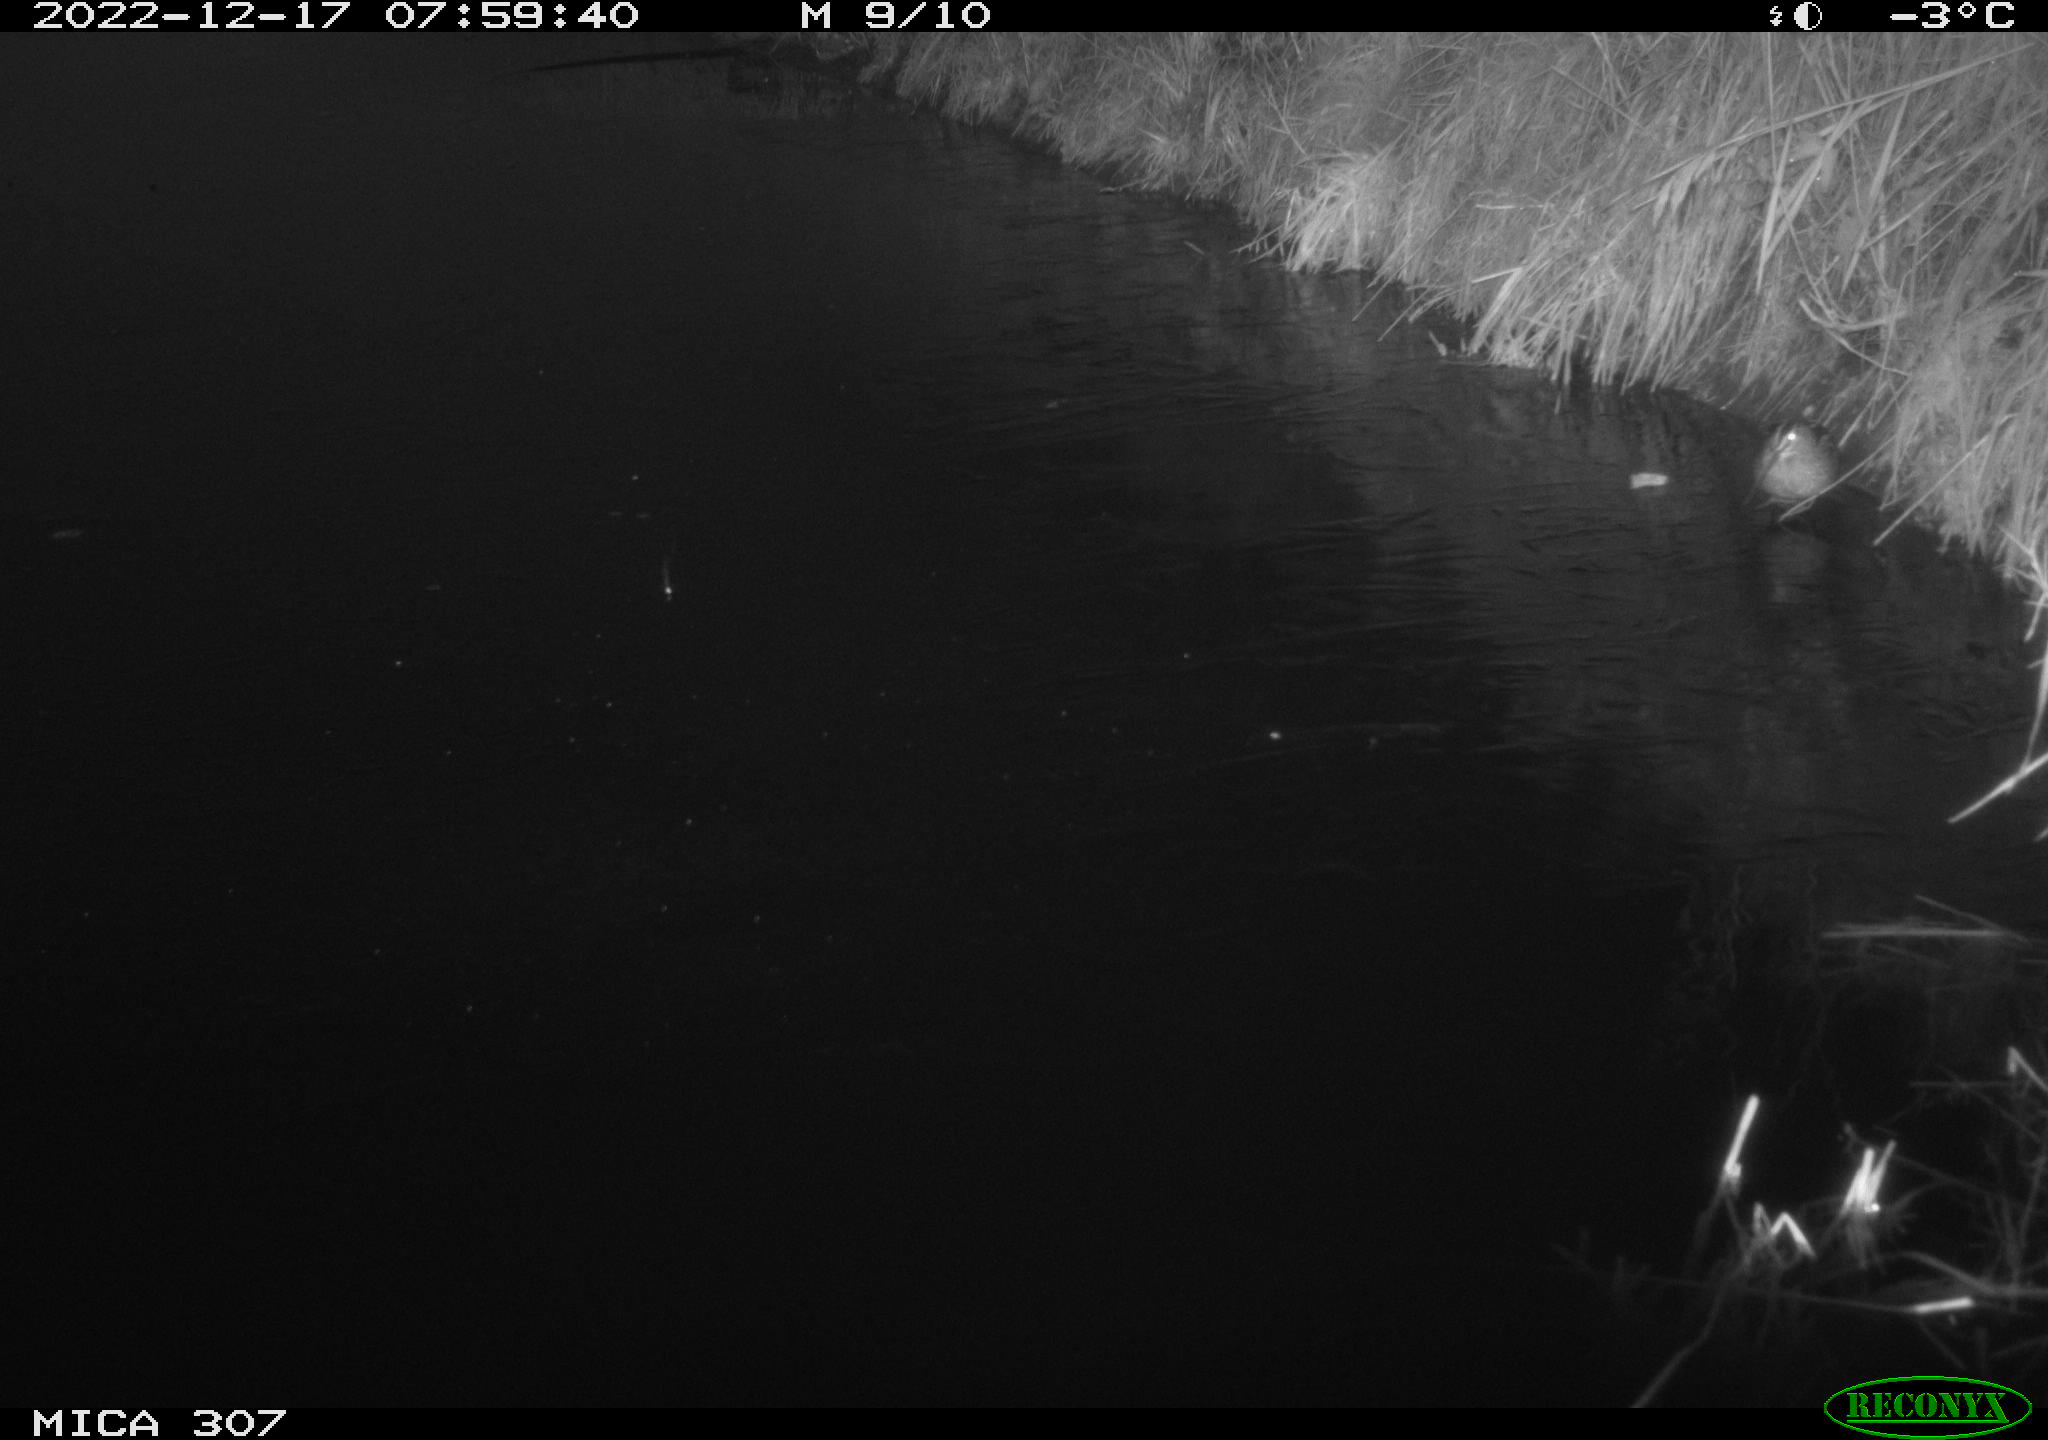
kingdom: Animalia
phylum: Chordata
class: Aves
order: Anseriformes
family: Anatidae
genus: Anas
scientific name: Anas
